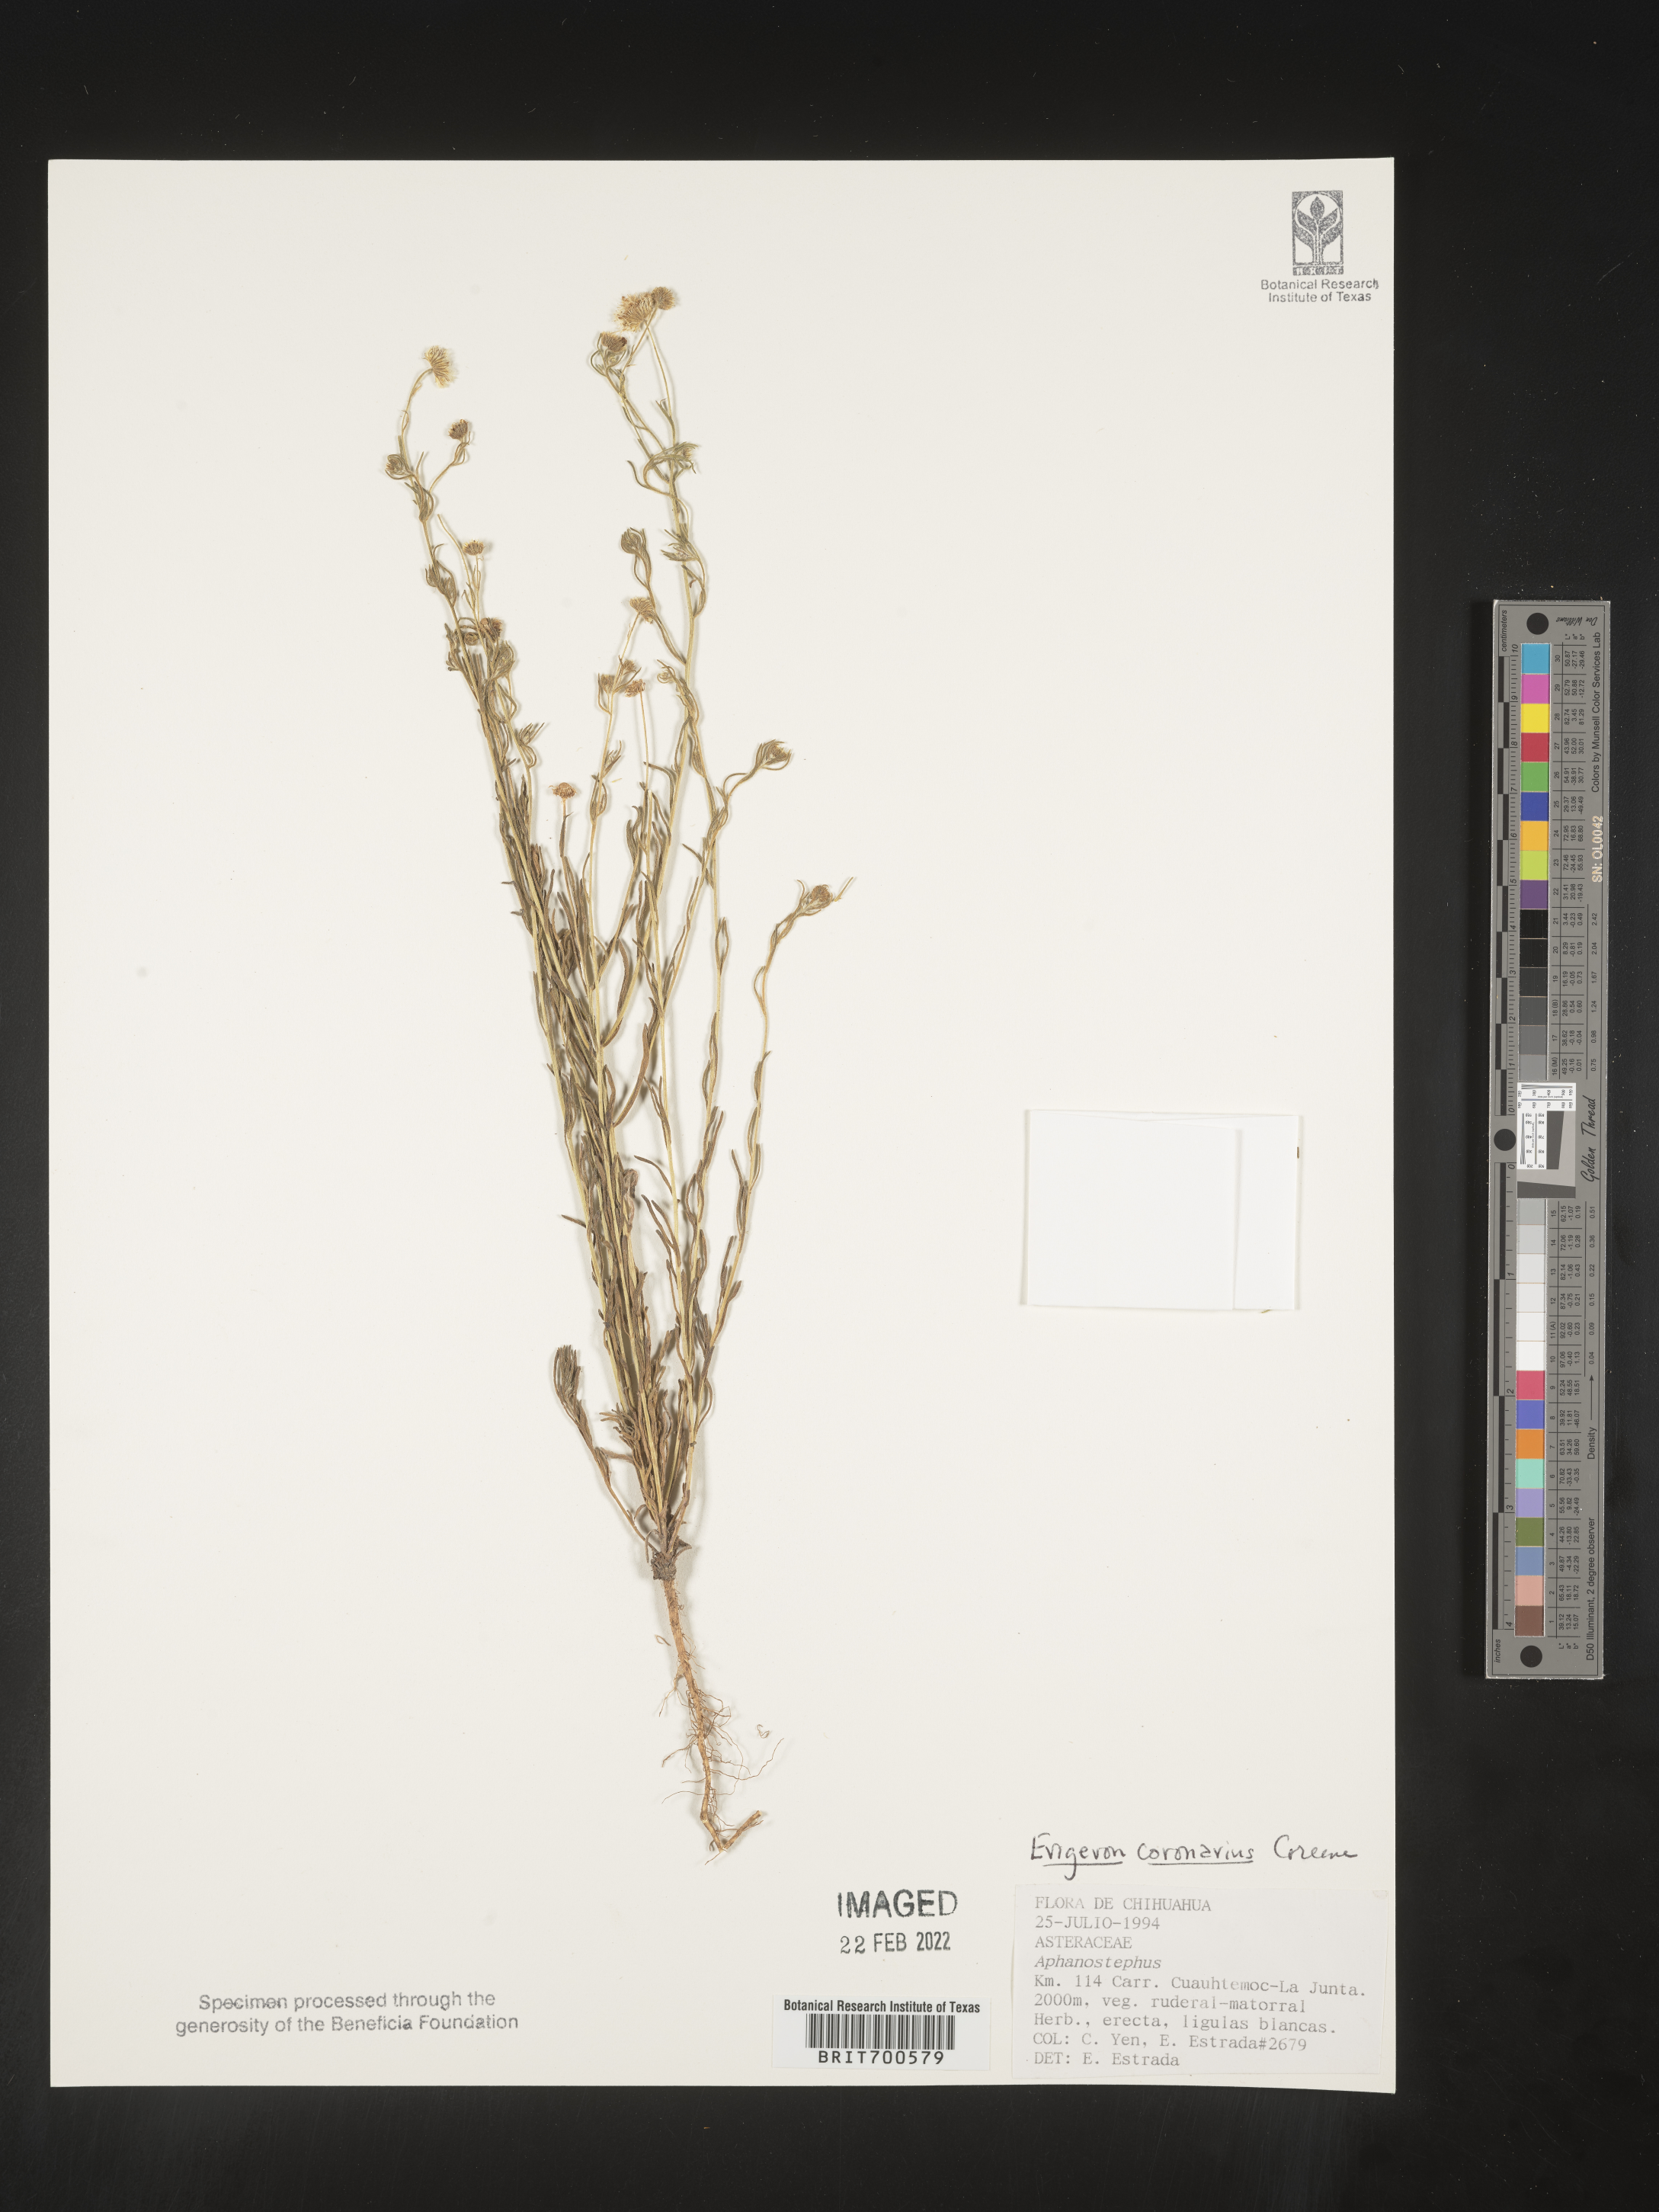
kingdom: Plantae
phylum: Tracheophyta
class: Magnoliopsida
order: Asterales
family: Asteraceae
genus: Erigeron
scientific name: Erigeron coronarius
